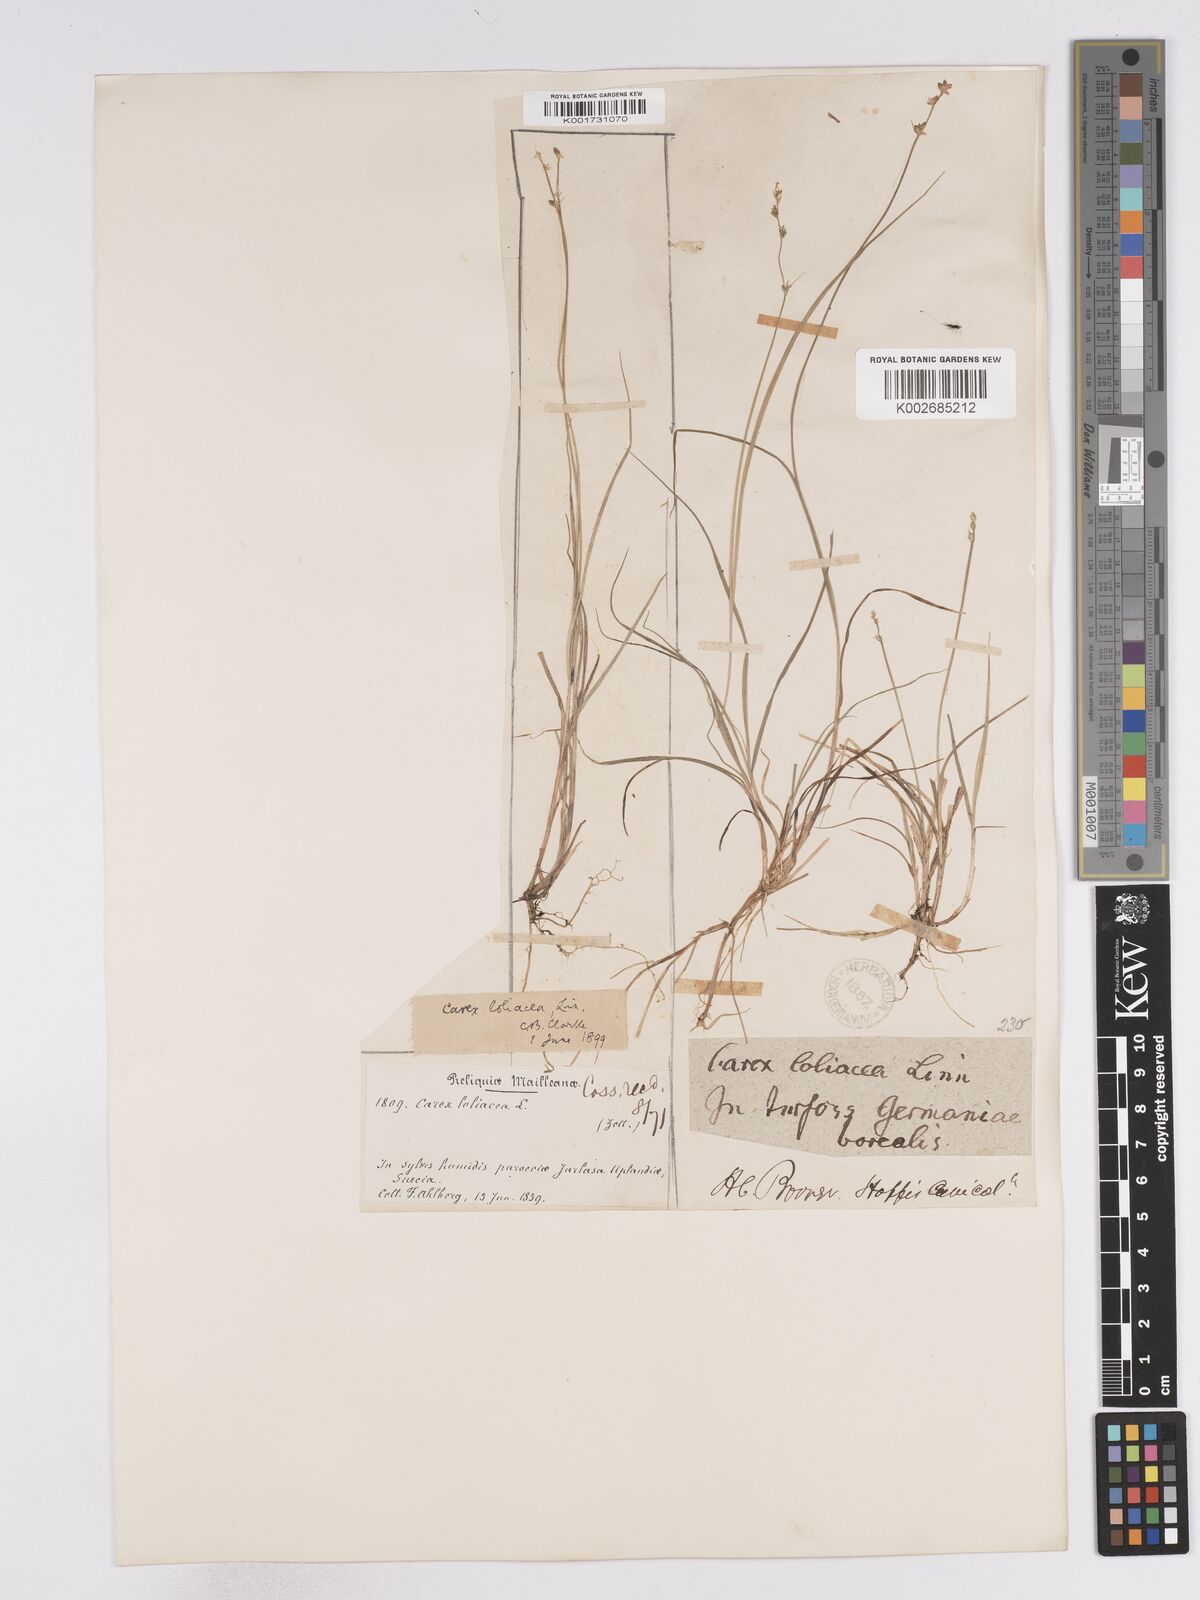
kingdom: Plantae
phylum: Tracheophyta
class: Liliopsida
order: Poales
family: Cyperaceae
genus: Carex
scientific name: Carex loliacea
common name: Ryegrass sedge
